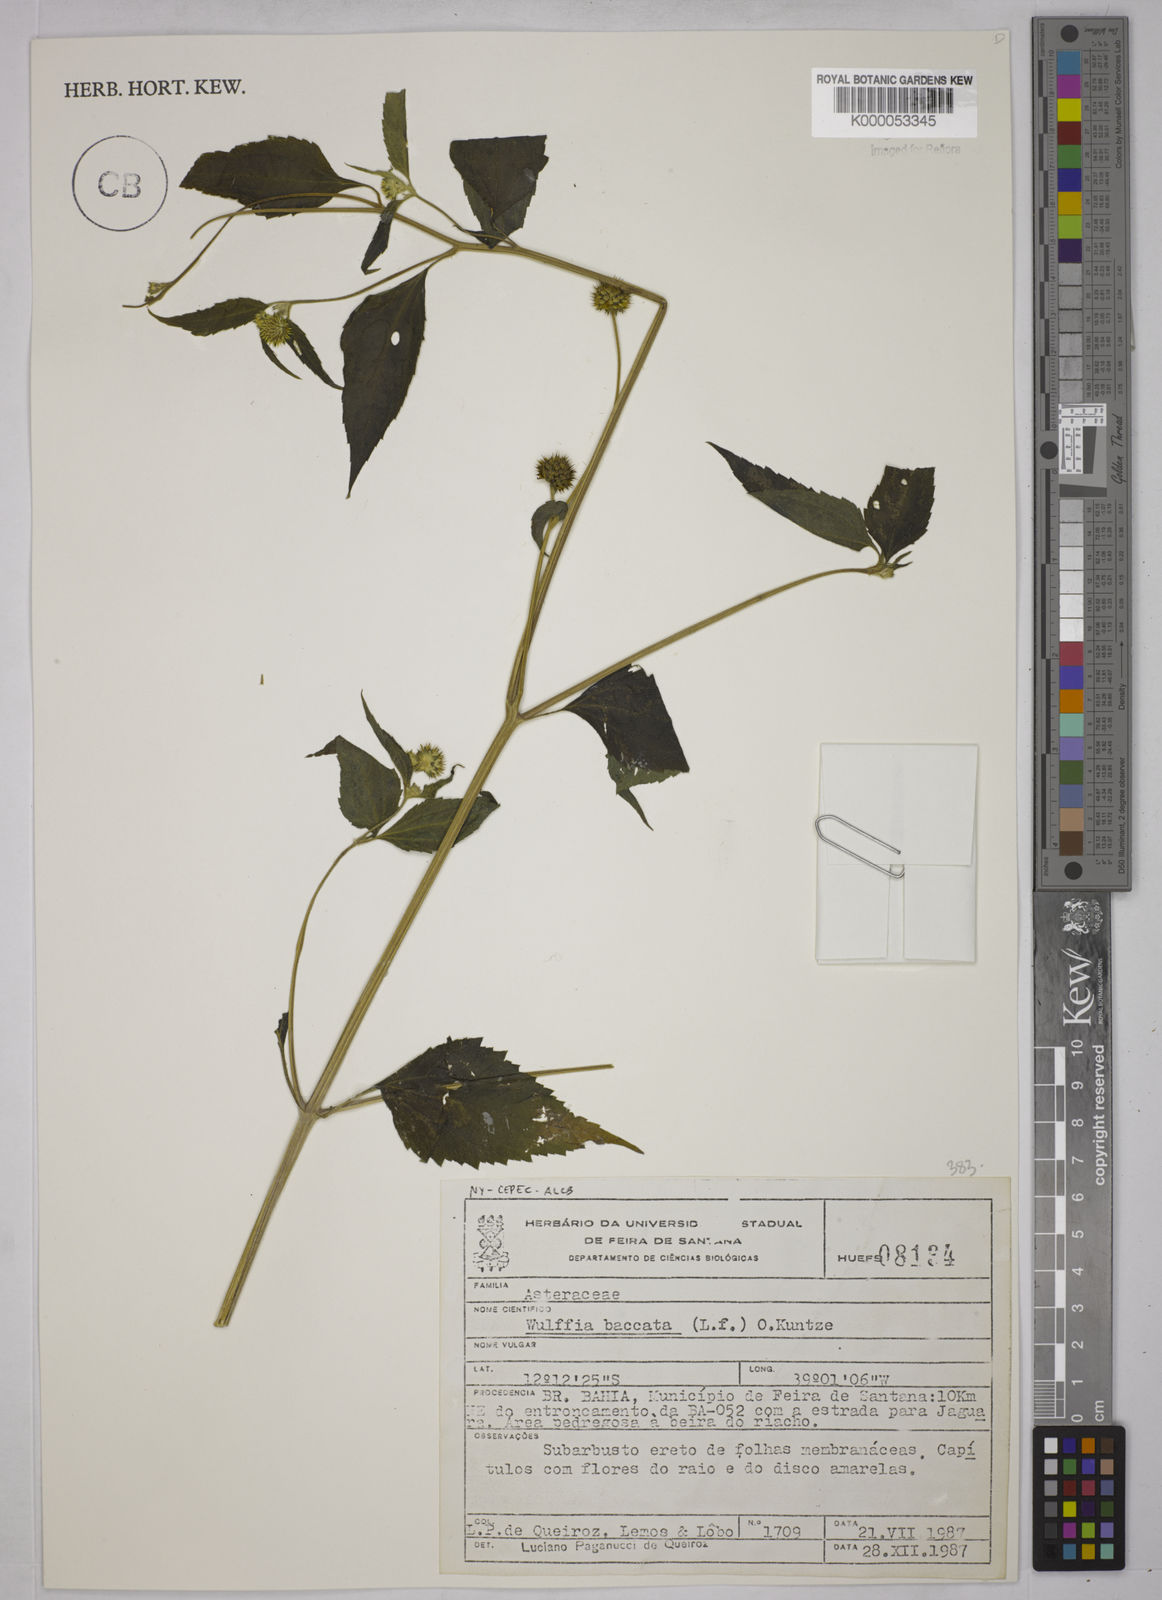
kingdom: Plantae
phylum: Tracheophyta
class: Magnoliopsida
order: Asterales
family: Asteraceae
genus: Tilesia
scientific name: Tilesia baccata
